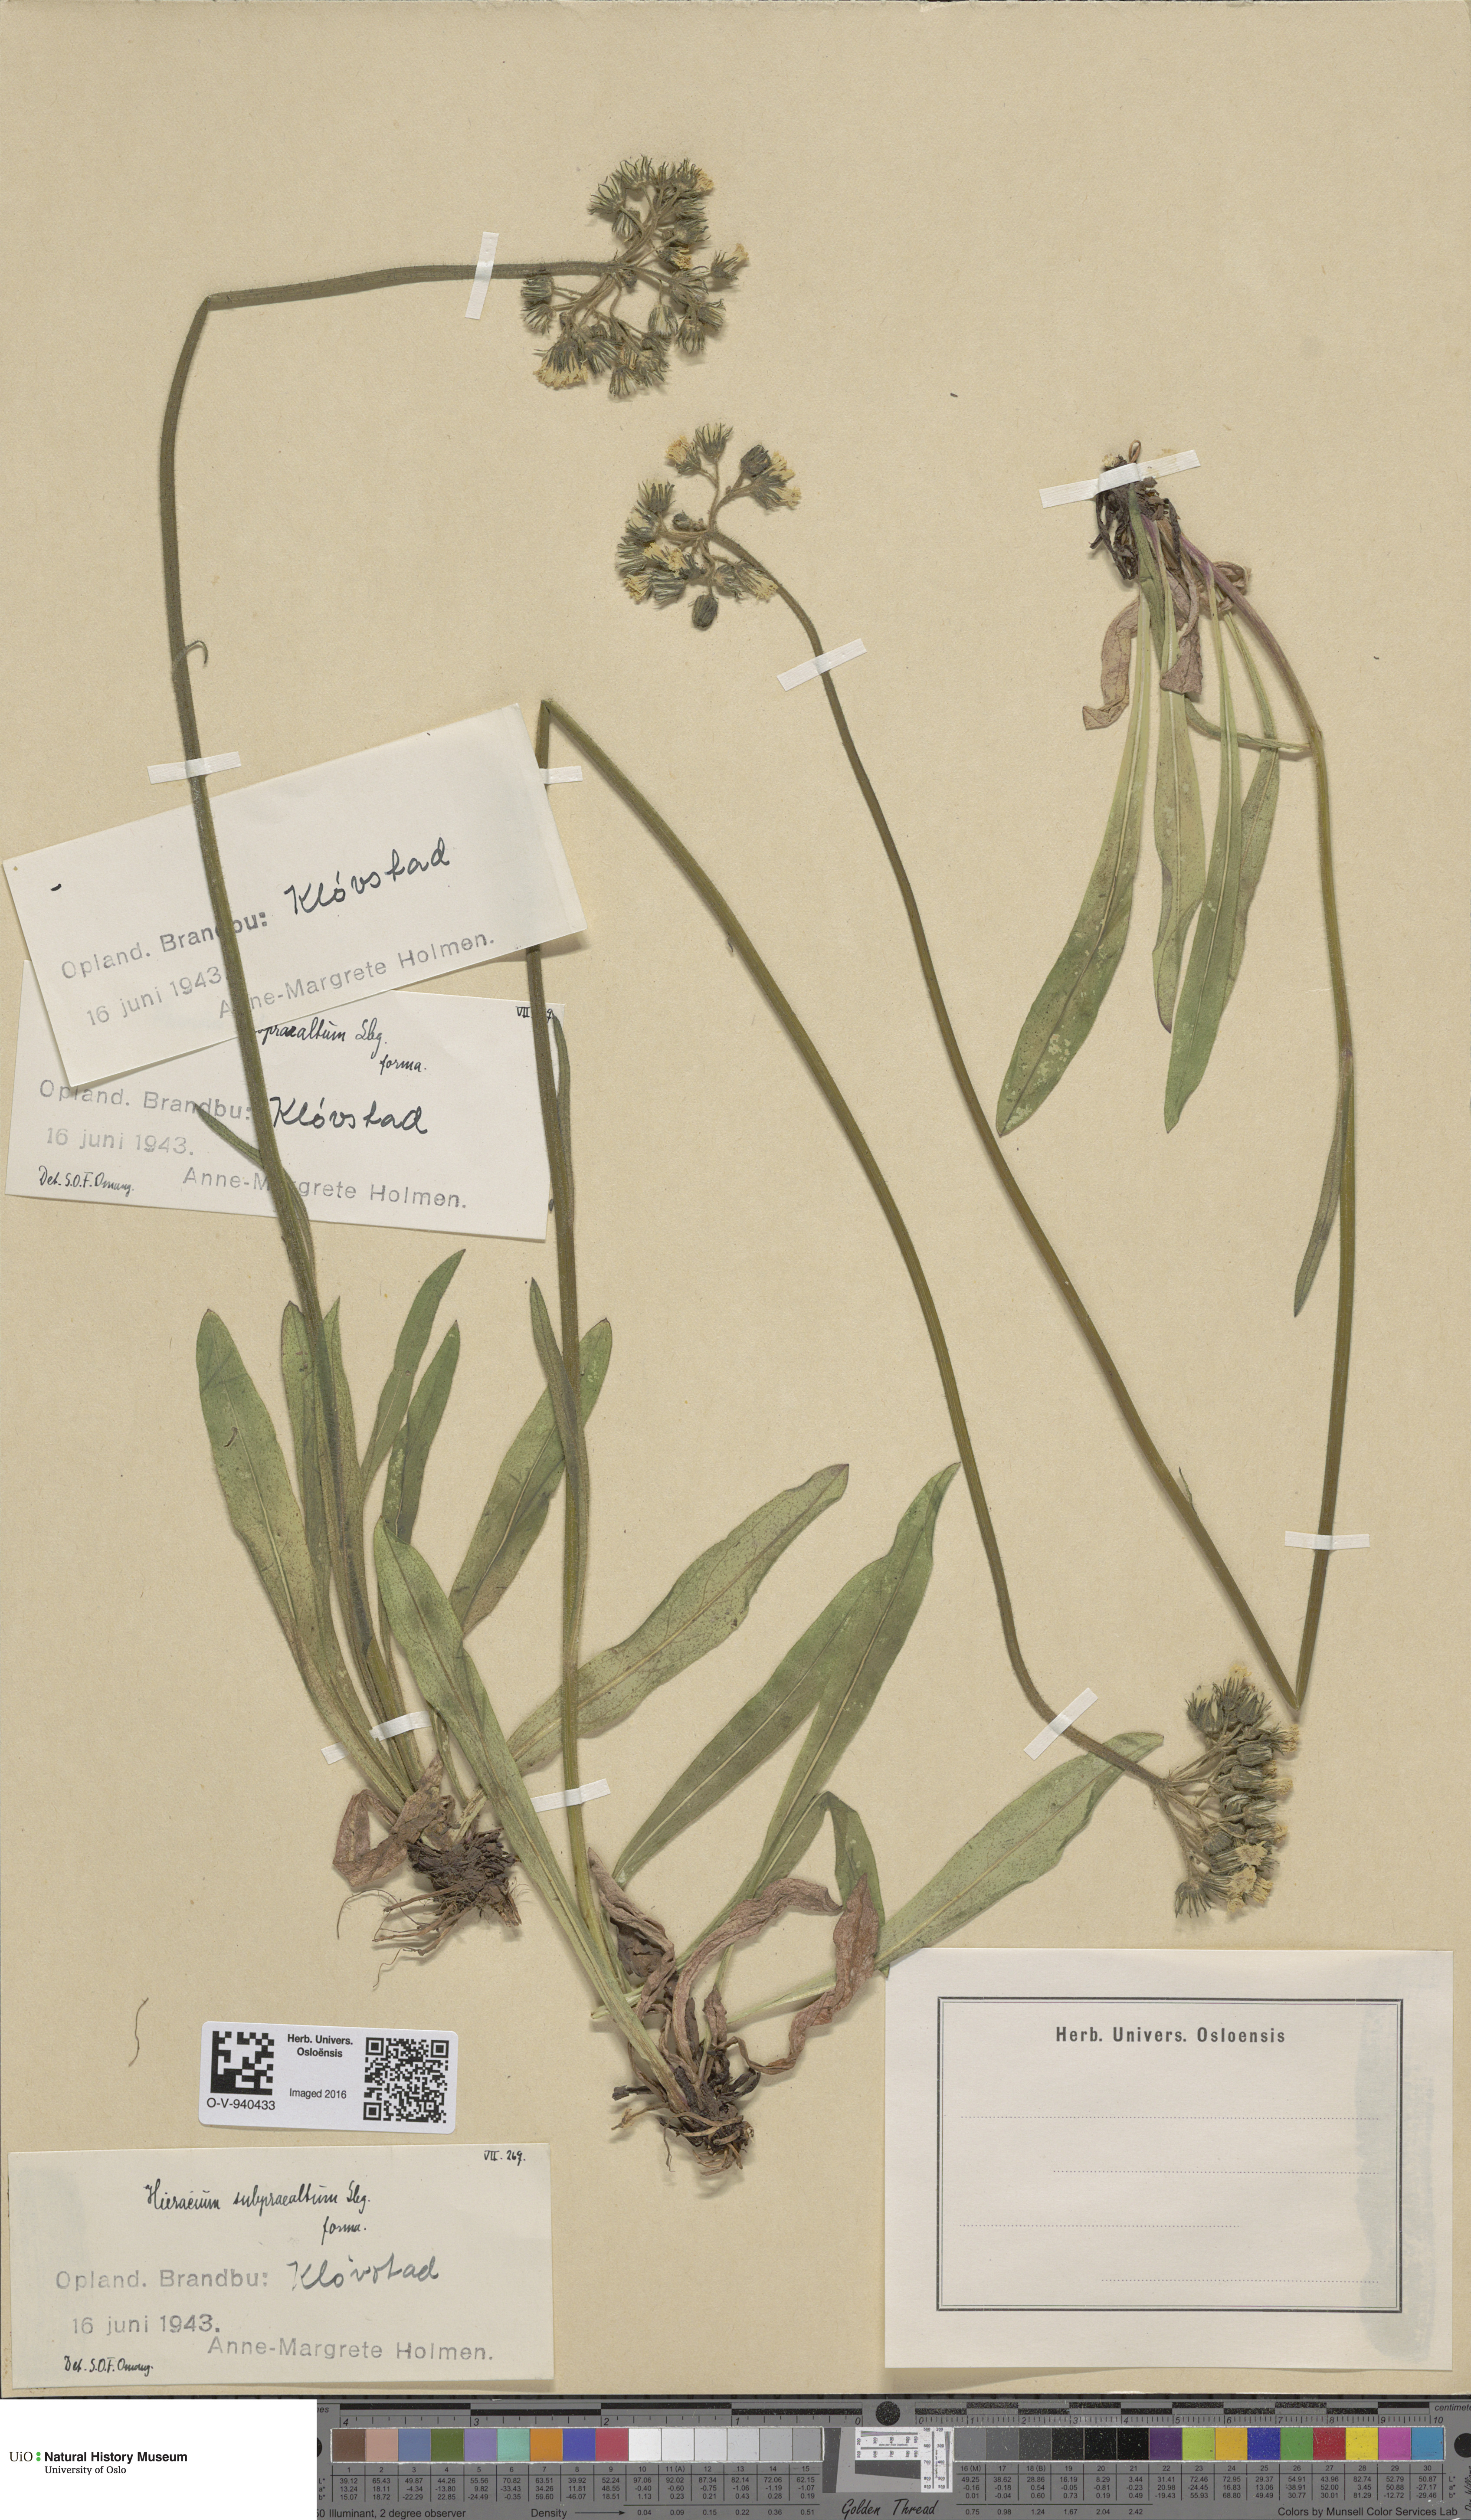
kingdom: Plantae
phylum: Tracheophyta
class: Magnoliopsida
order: Asterales
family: Asteraceae
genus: Pilosella
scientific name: Pilosella glomerata
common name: Queen devil hawkweed
